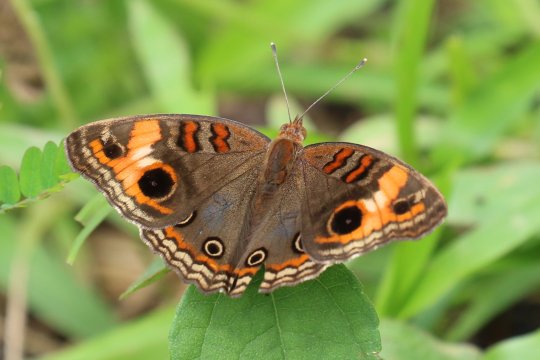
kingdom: Animalia
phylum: Arthropoda
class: Insecta
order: Lepidoptera
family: Nymphalidae
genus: Junonia
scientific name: Junonia lavinia
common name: Tropical Buckeye
